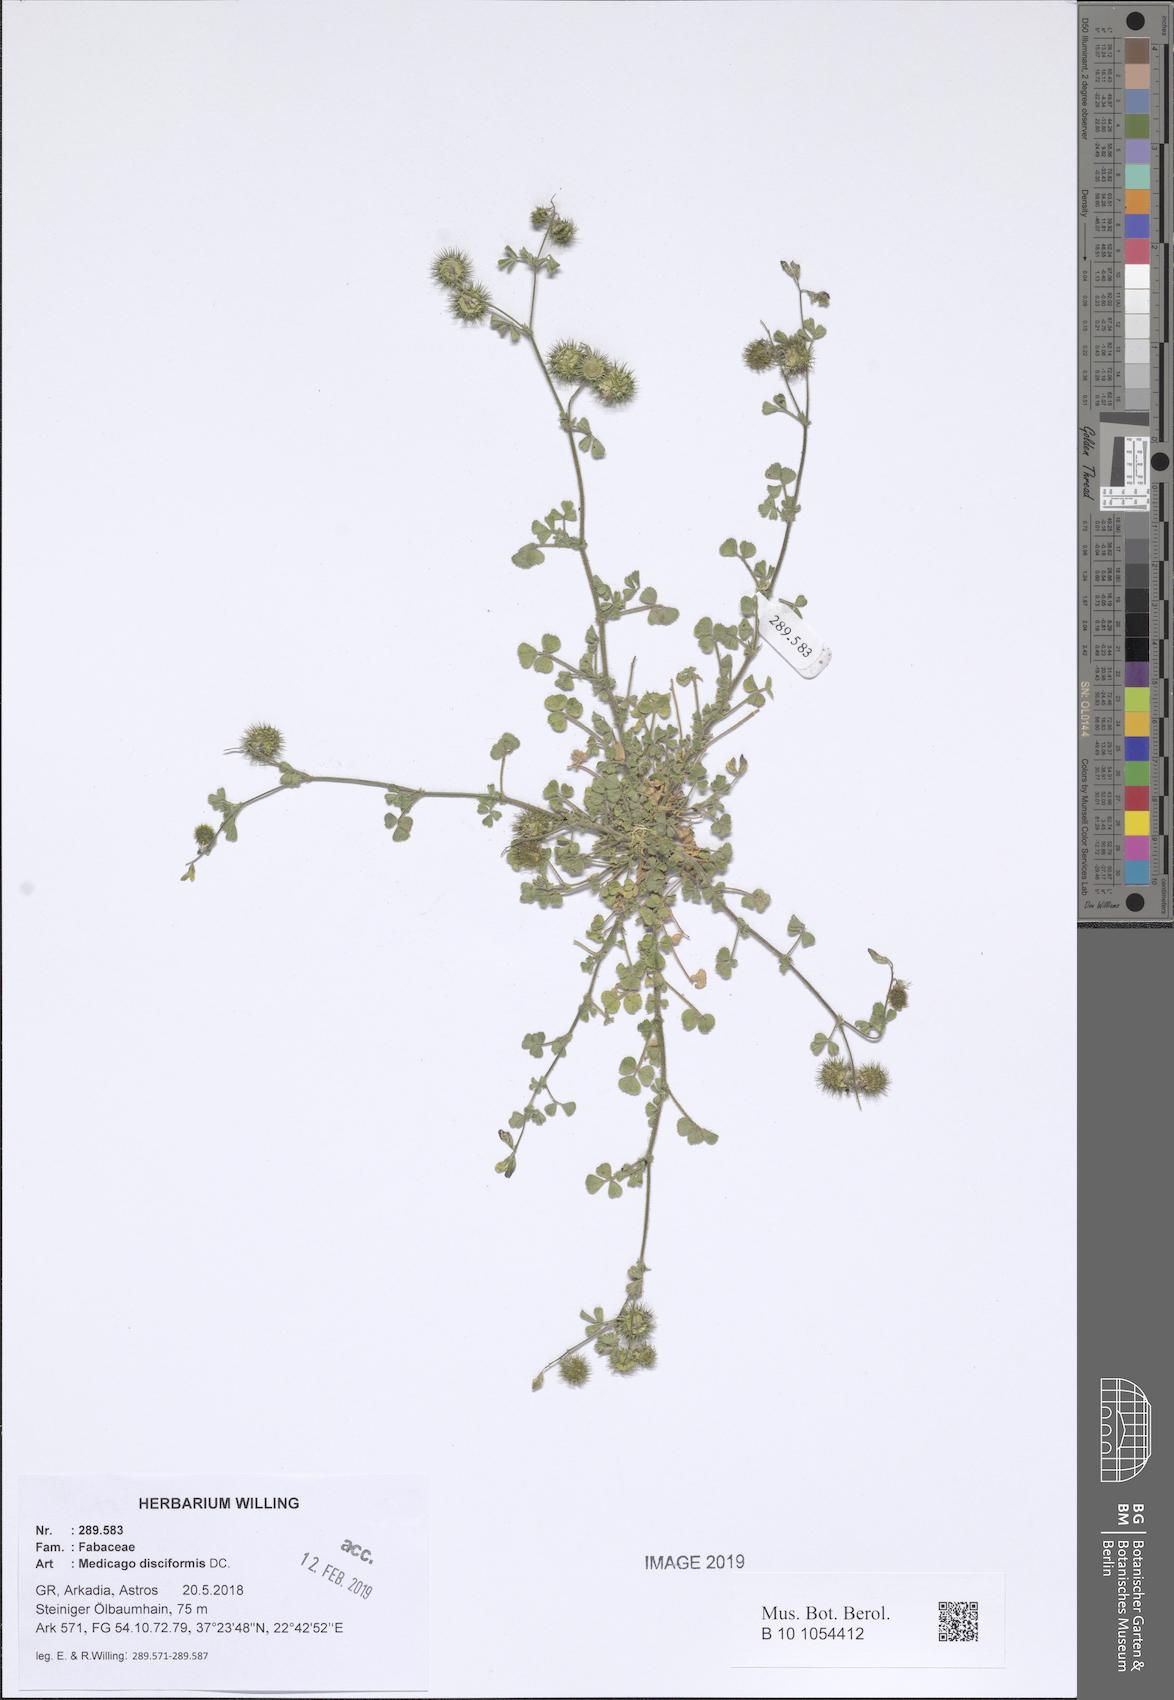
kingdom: Plantae
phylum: Tracheophyta
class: Magnoliopsida
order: Fabales
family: Fabaceae
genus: Medicago
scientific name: Medicago disciformis
